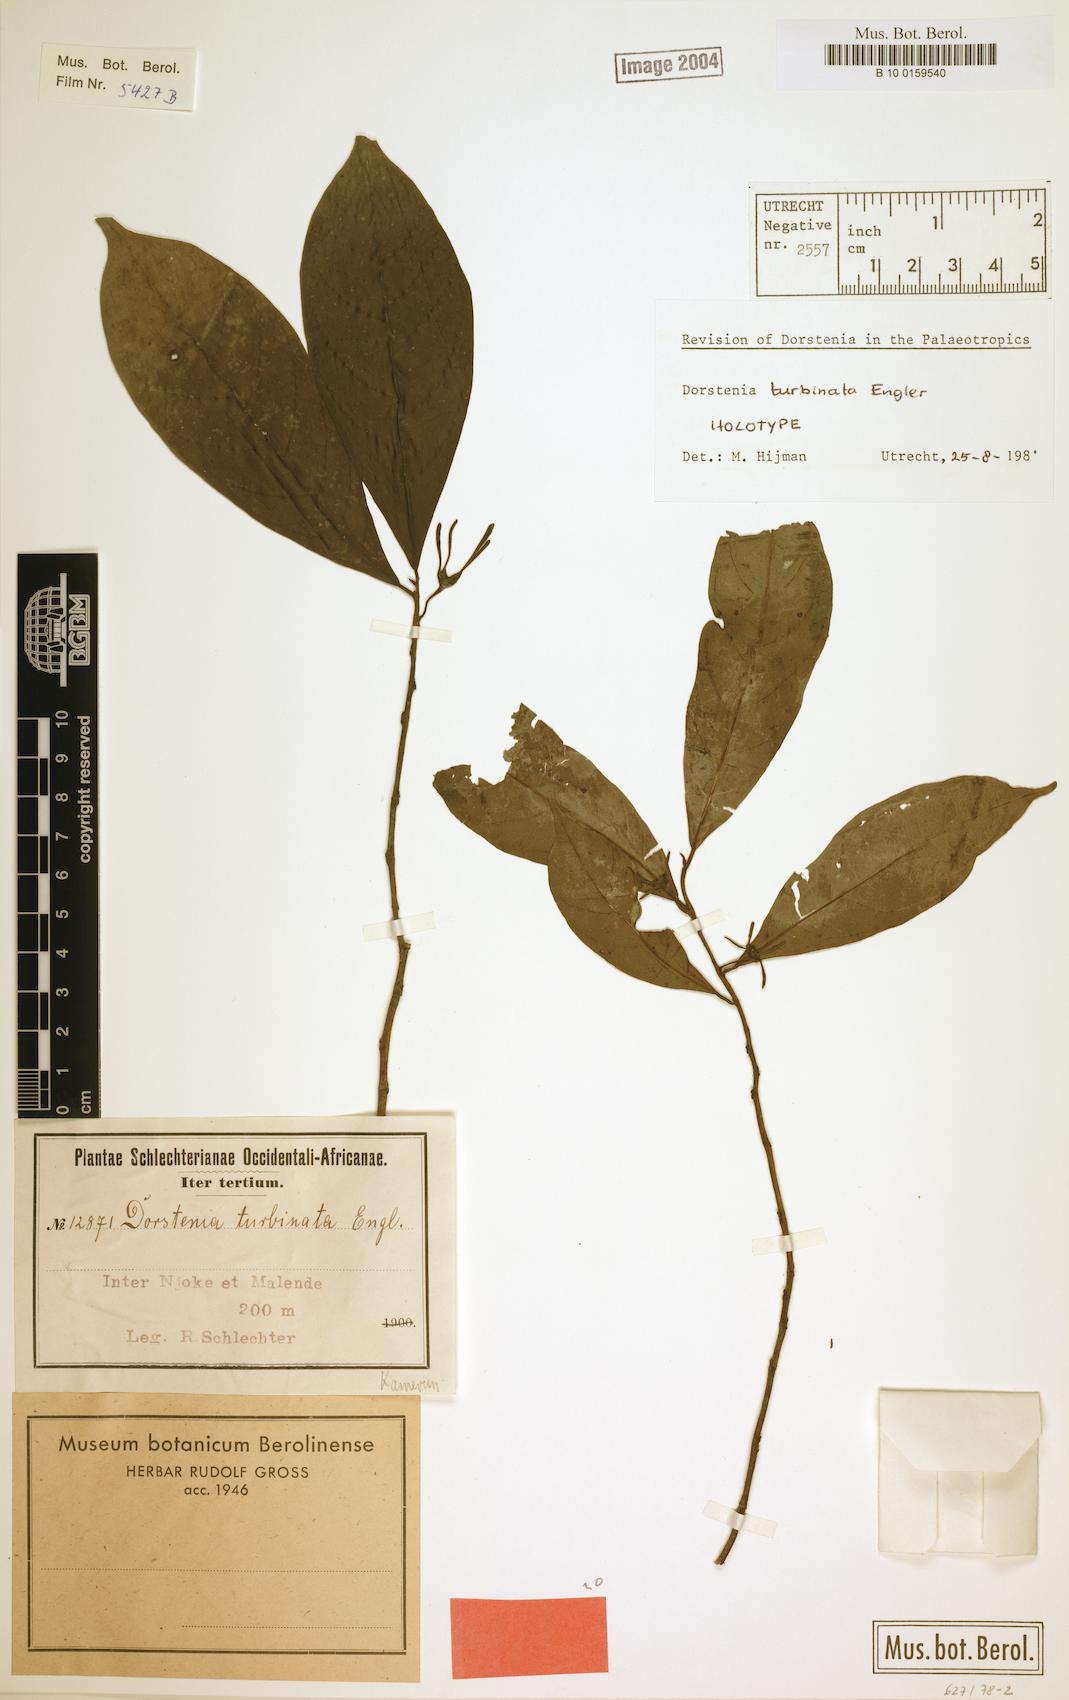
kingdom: Plantae
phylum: Tracheophyta
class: Magnoliopsida
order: Rosales
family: Moraceae
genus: Hijmania
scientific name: Hijmania turbinata
